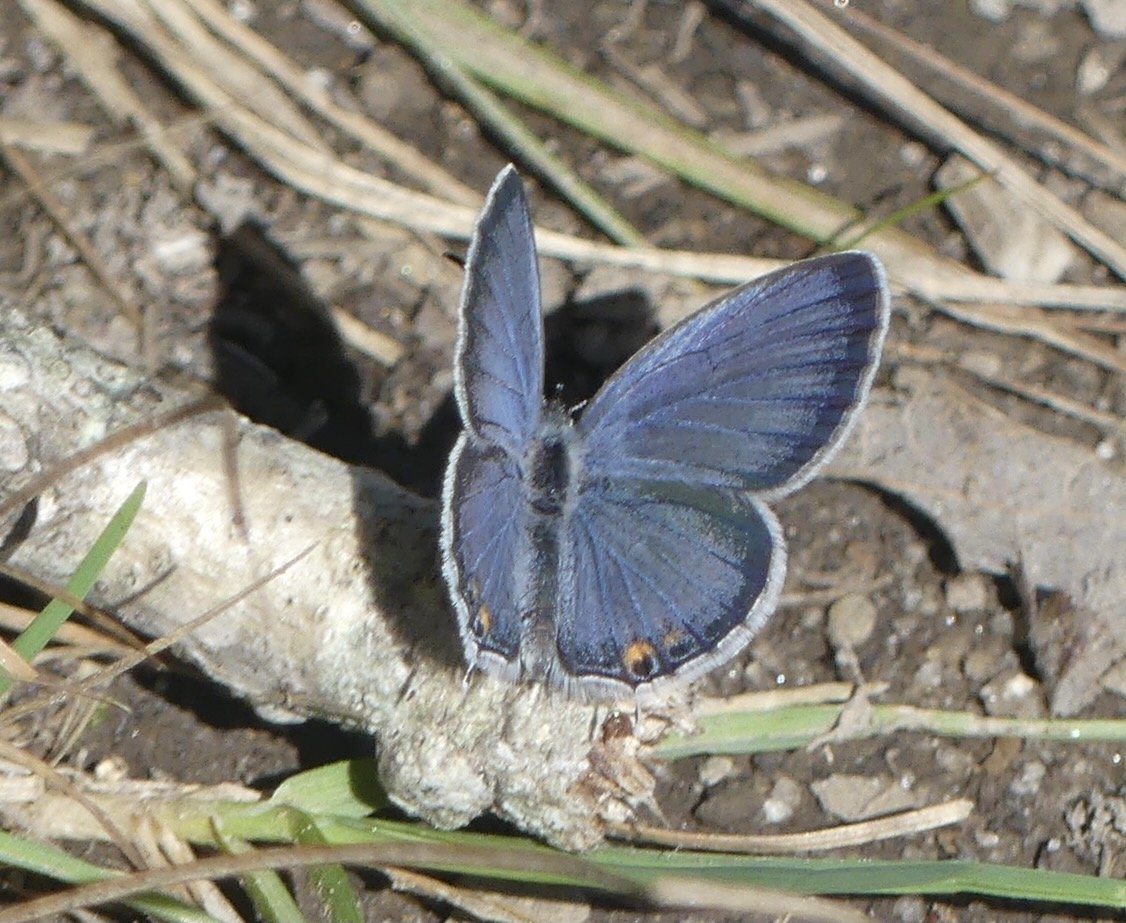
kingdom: Animalia
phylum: Arthropoda
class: Insecta
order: Lepidoptera
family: Lycaenidae
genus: Elkalyce
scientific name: Elkalyce comyntas
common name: Eastern Tailed-Blue
